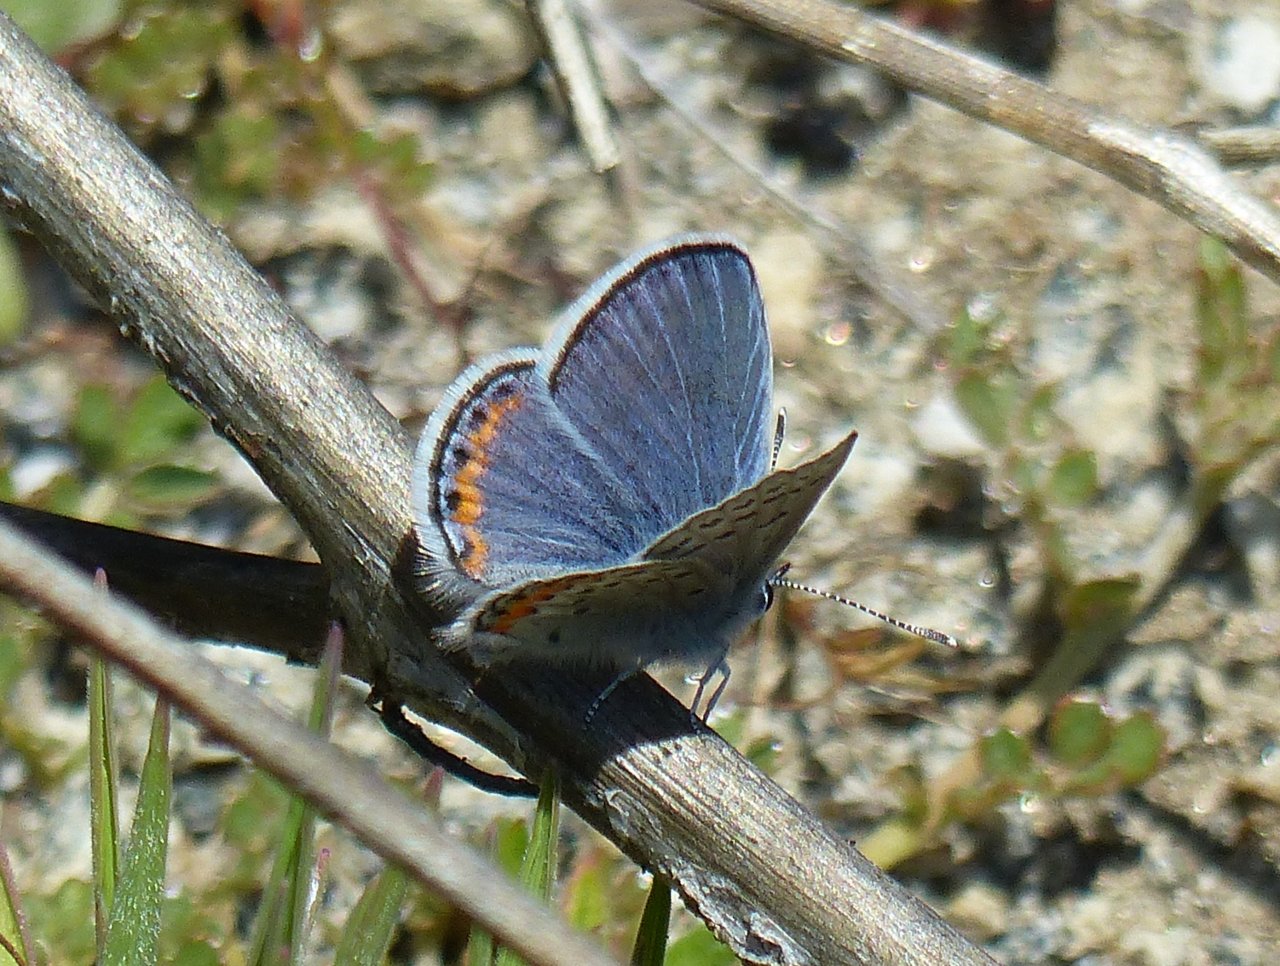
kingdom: Animalia
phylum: Arthropoda
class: Insecta
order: Lepidoptera
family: Lycaenidae
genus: Plebejus
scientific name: Plebejus lupini
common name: Lupine Blue
